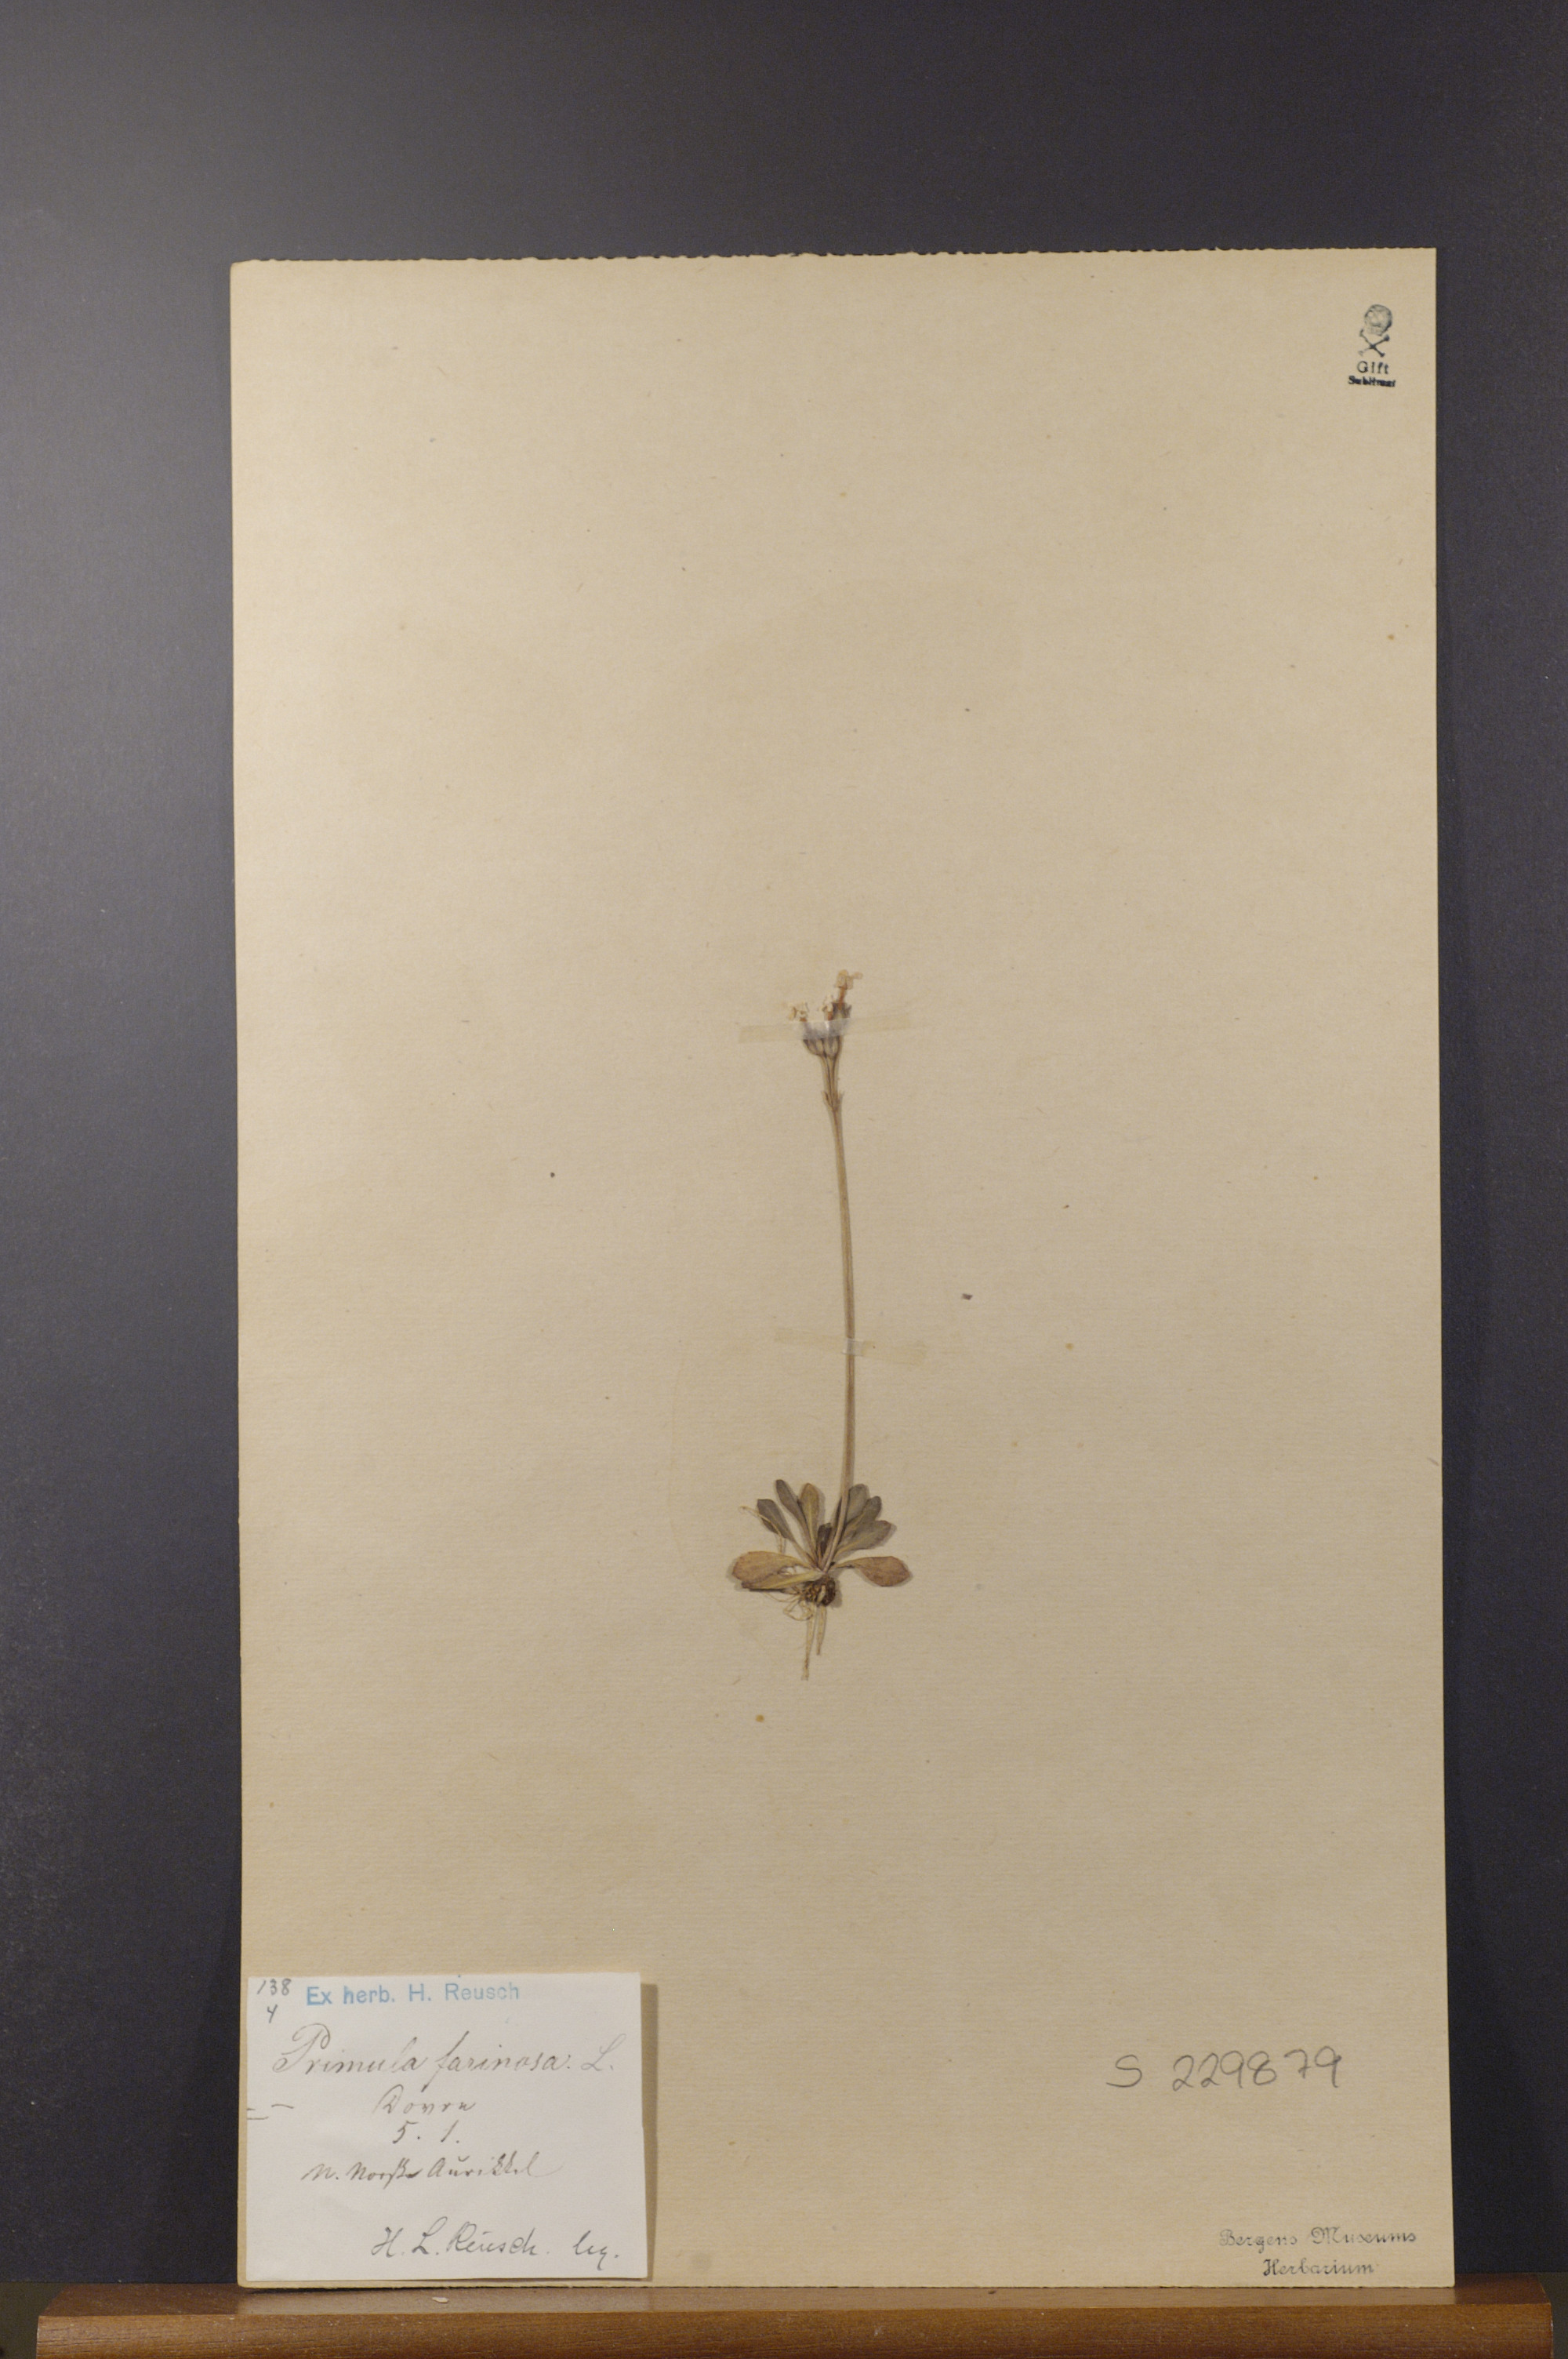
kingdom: Plantae
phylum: Tracheophyta
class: Magnoliopsida
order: Ericales
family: Primulaceae
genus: Primula
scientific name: Primula farinosa
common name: Bird's-eye primrose
